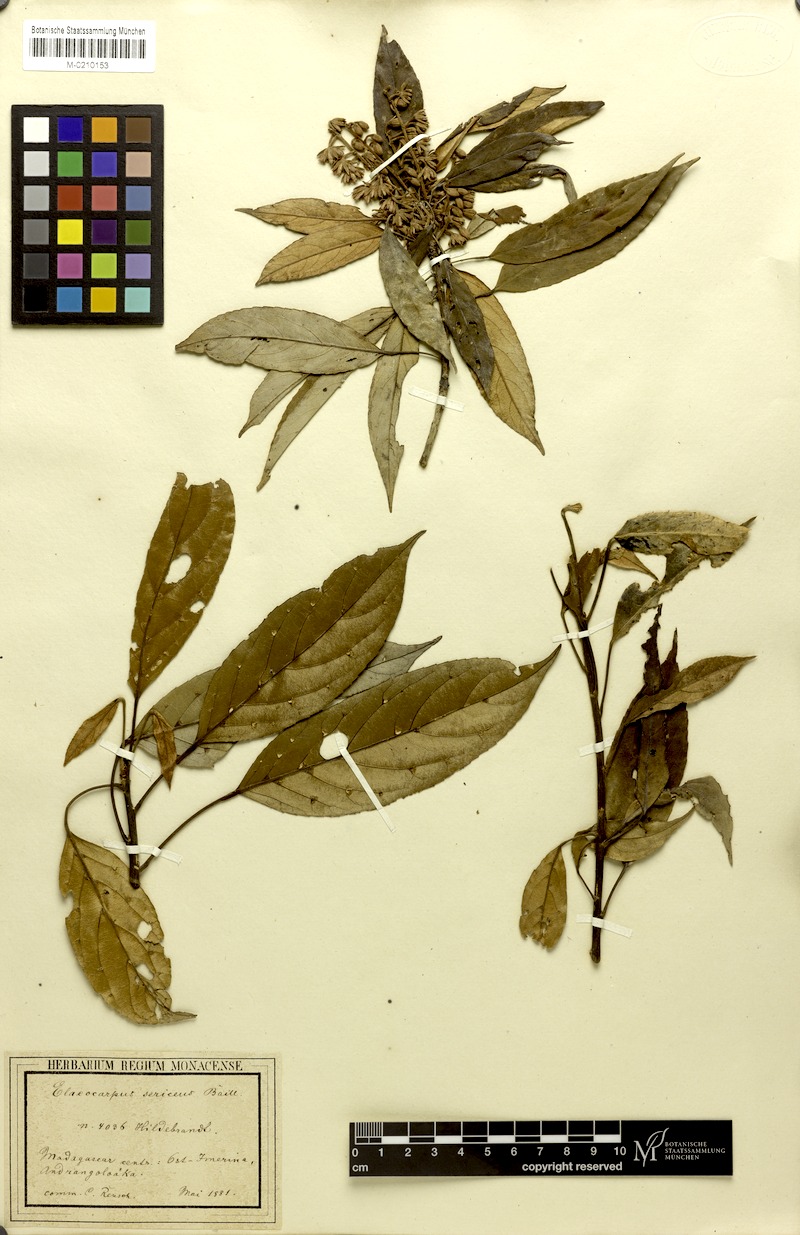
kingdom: Plantae
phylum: Tracheophyta
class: Magnoliopsida
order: Oxalidales
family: Elaeocarpaceae
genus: Elaeocarpus
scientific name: Elaeocarpus subserratus
